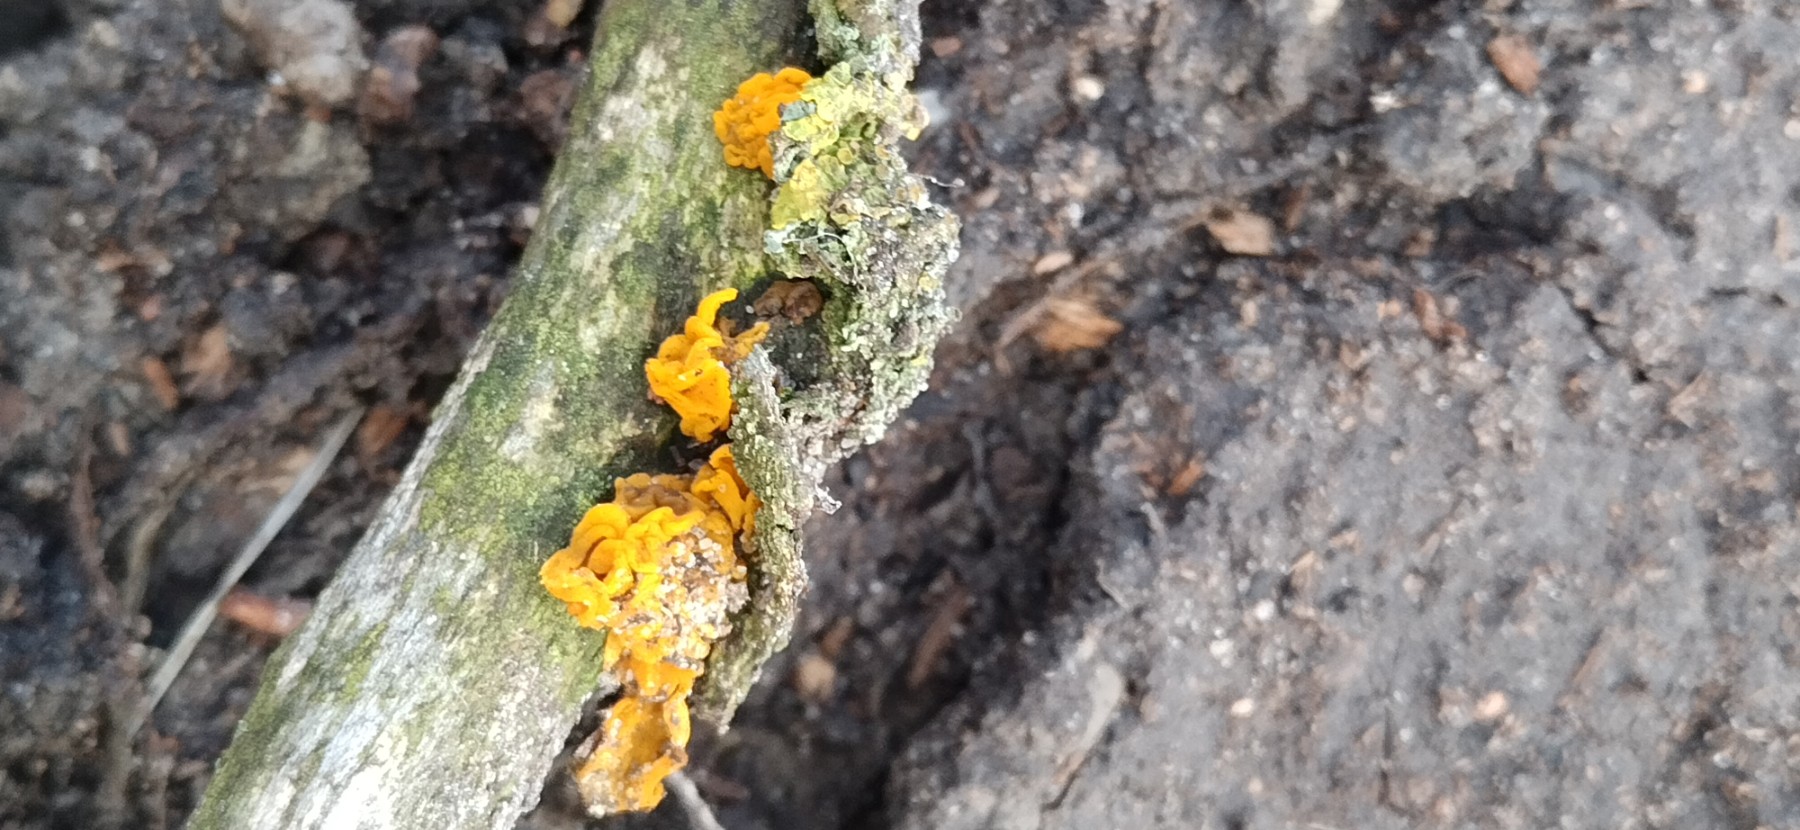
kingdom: Fungi
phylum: Basidiomycota
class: Tremellomycetes
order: Tremellales
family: Tremellaceae
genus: Tremella
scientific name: Tremella mesenterica
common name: gul bævresvamp
